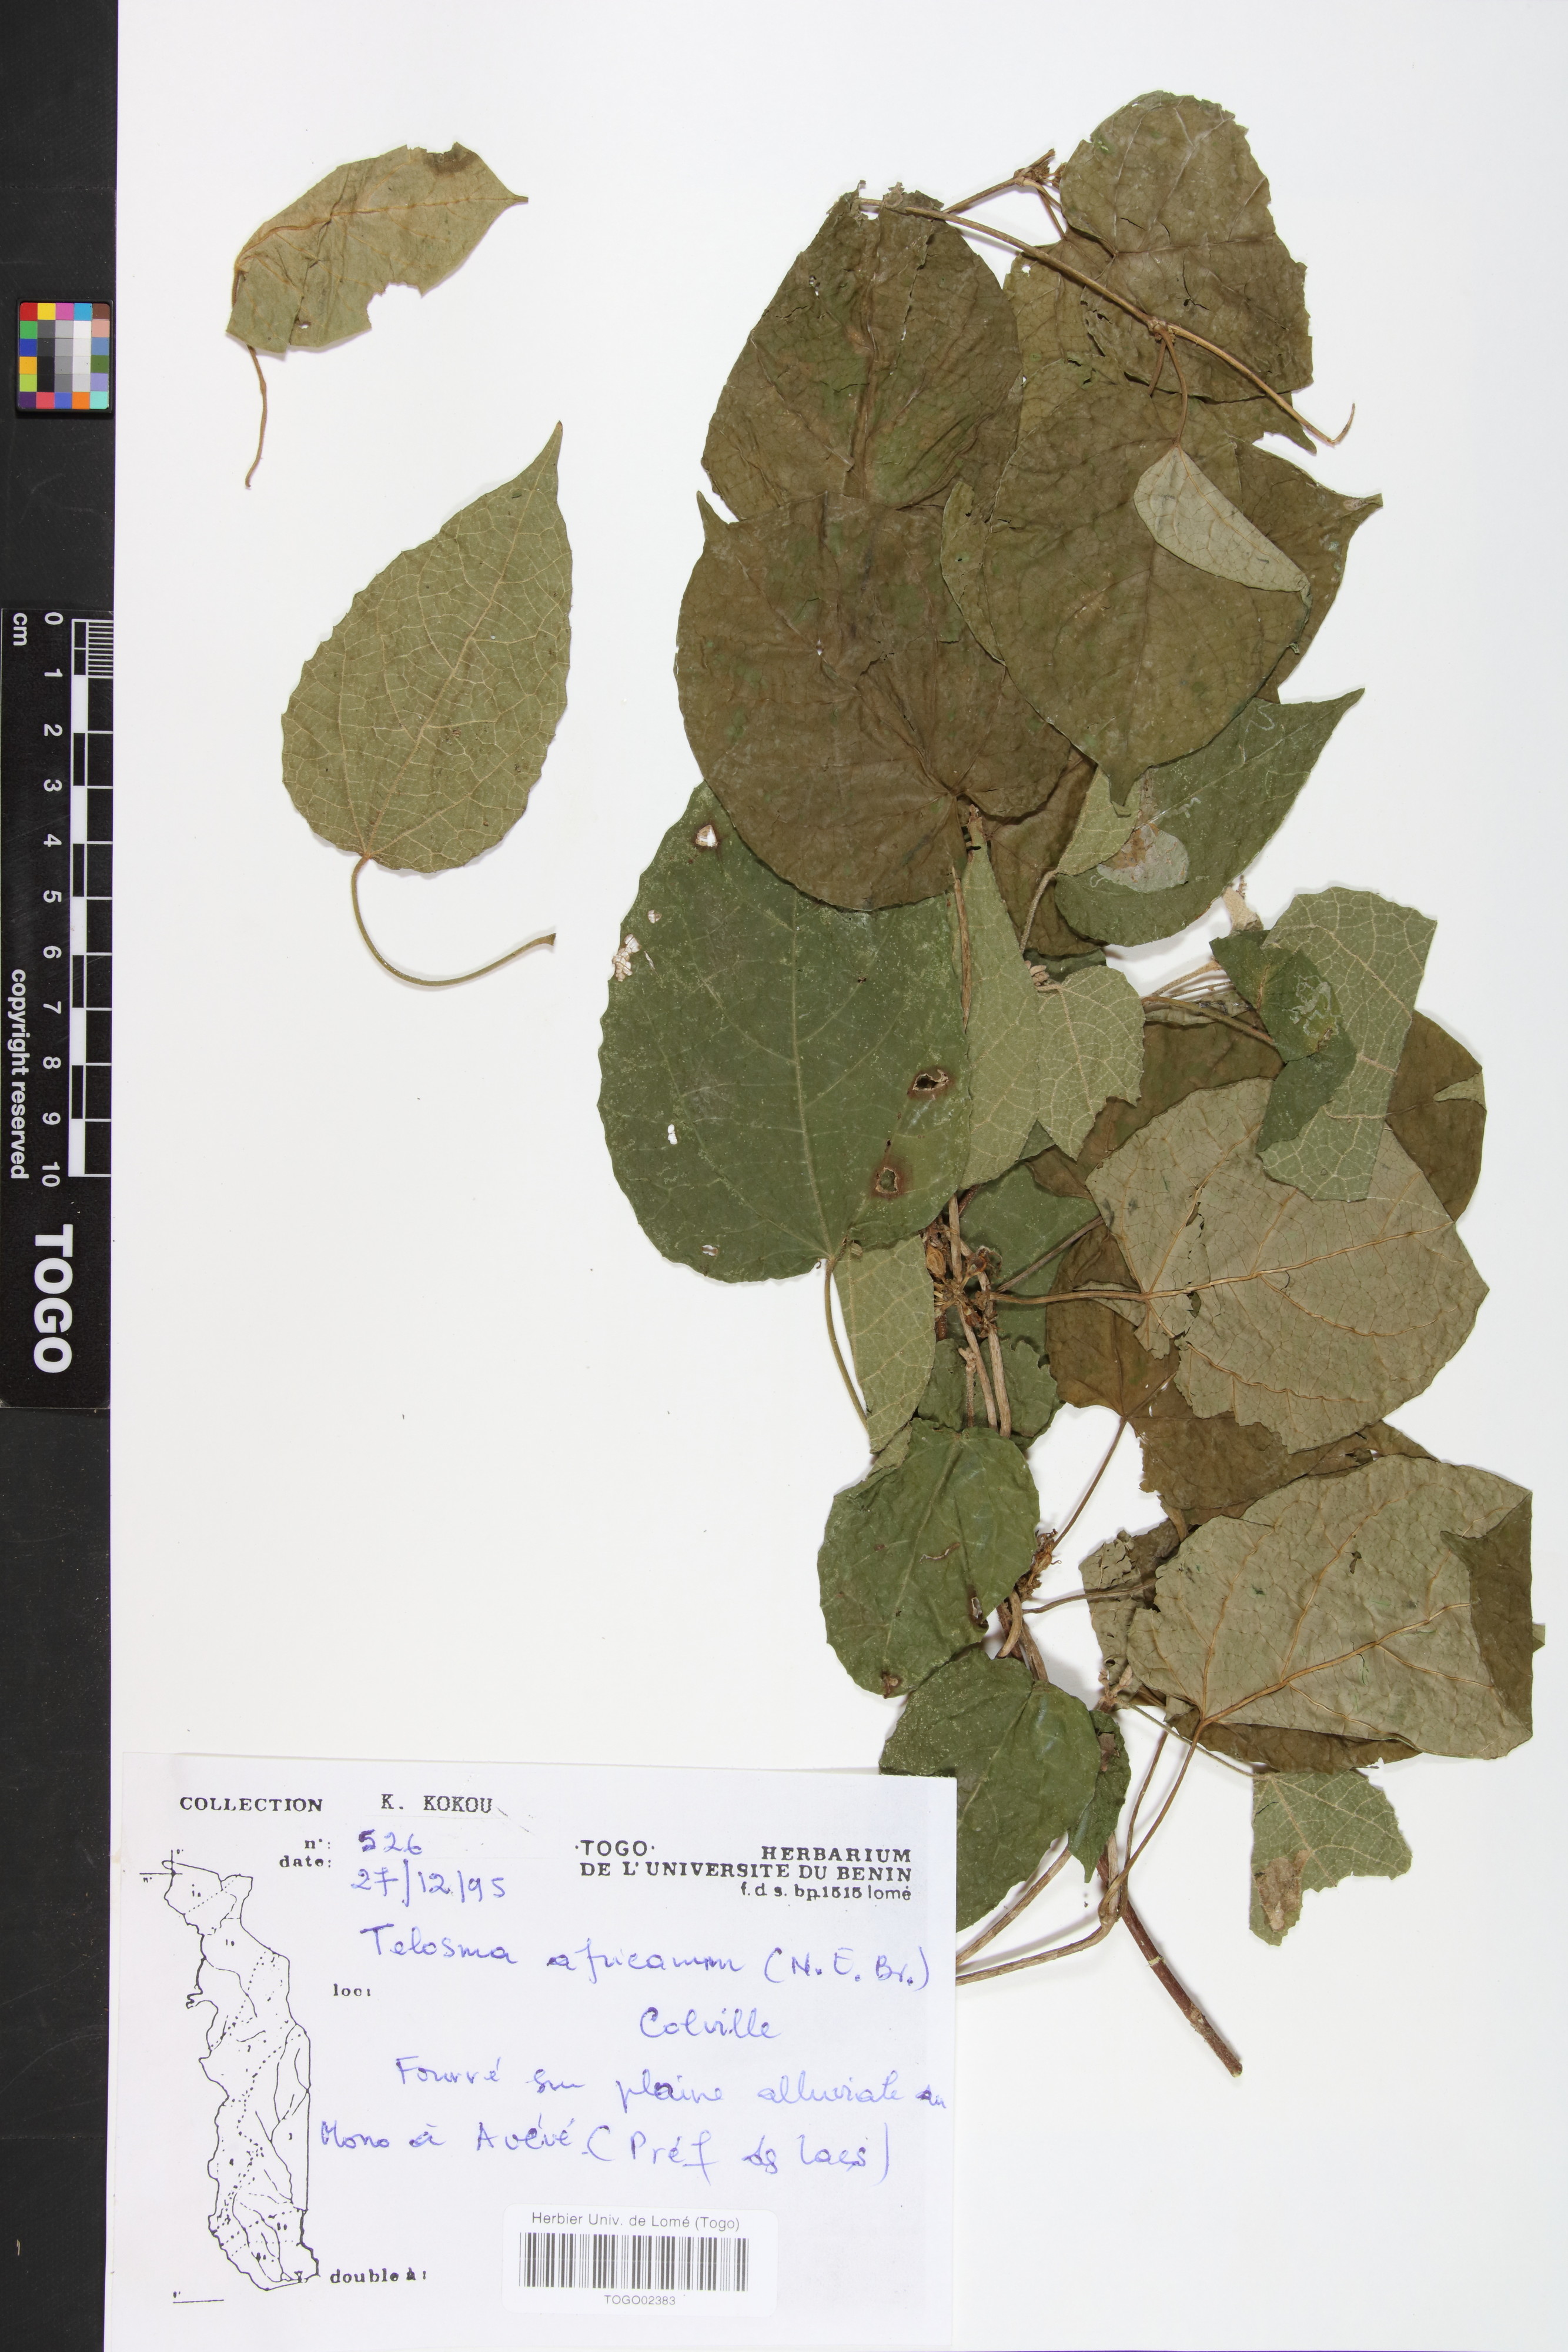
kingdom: Plantae
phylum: Tracheophyta
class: Magnoliopsida
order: Gentianales
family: Apocynaceae
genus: Telosma
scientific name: Telosma africana
